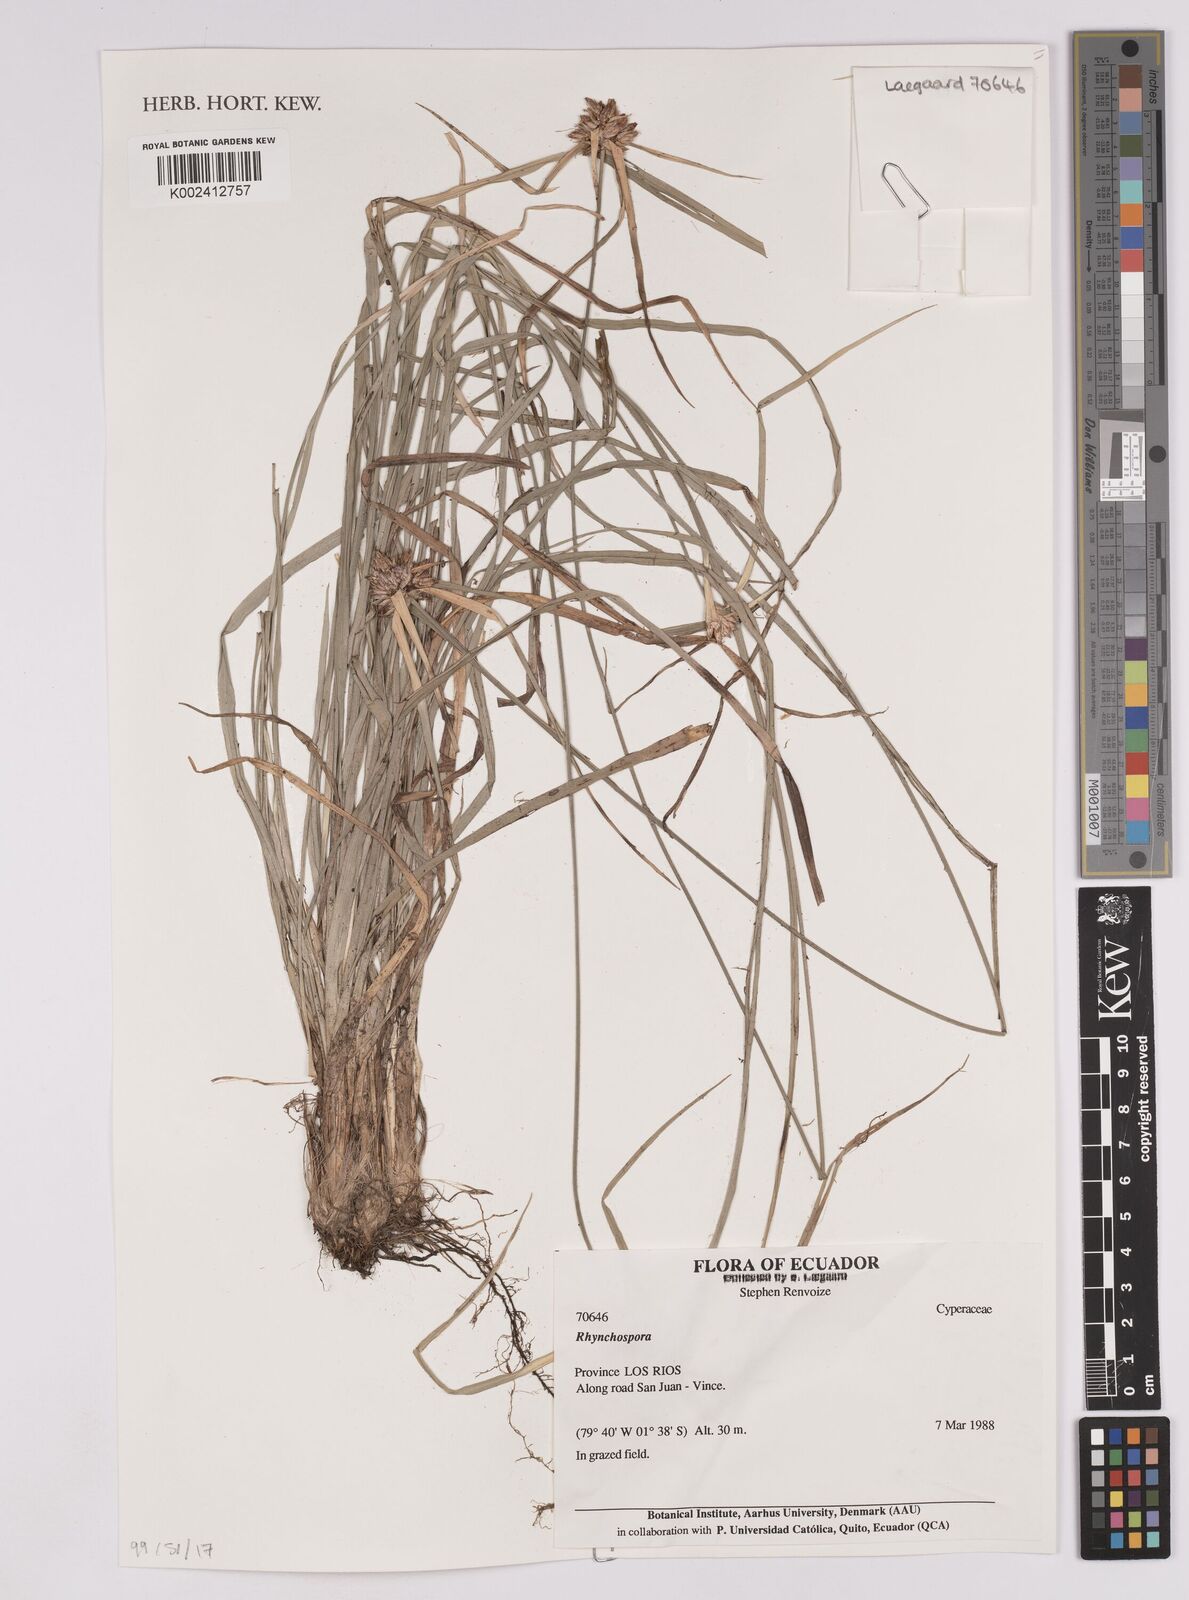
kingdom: Plantae
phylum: Tracheophyta
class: Liliopsida
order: Poales
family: Cyperaceae
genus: Rhynchospora
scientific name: Rhynchospora
